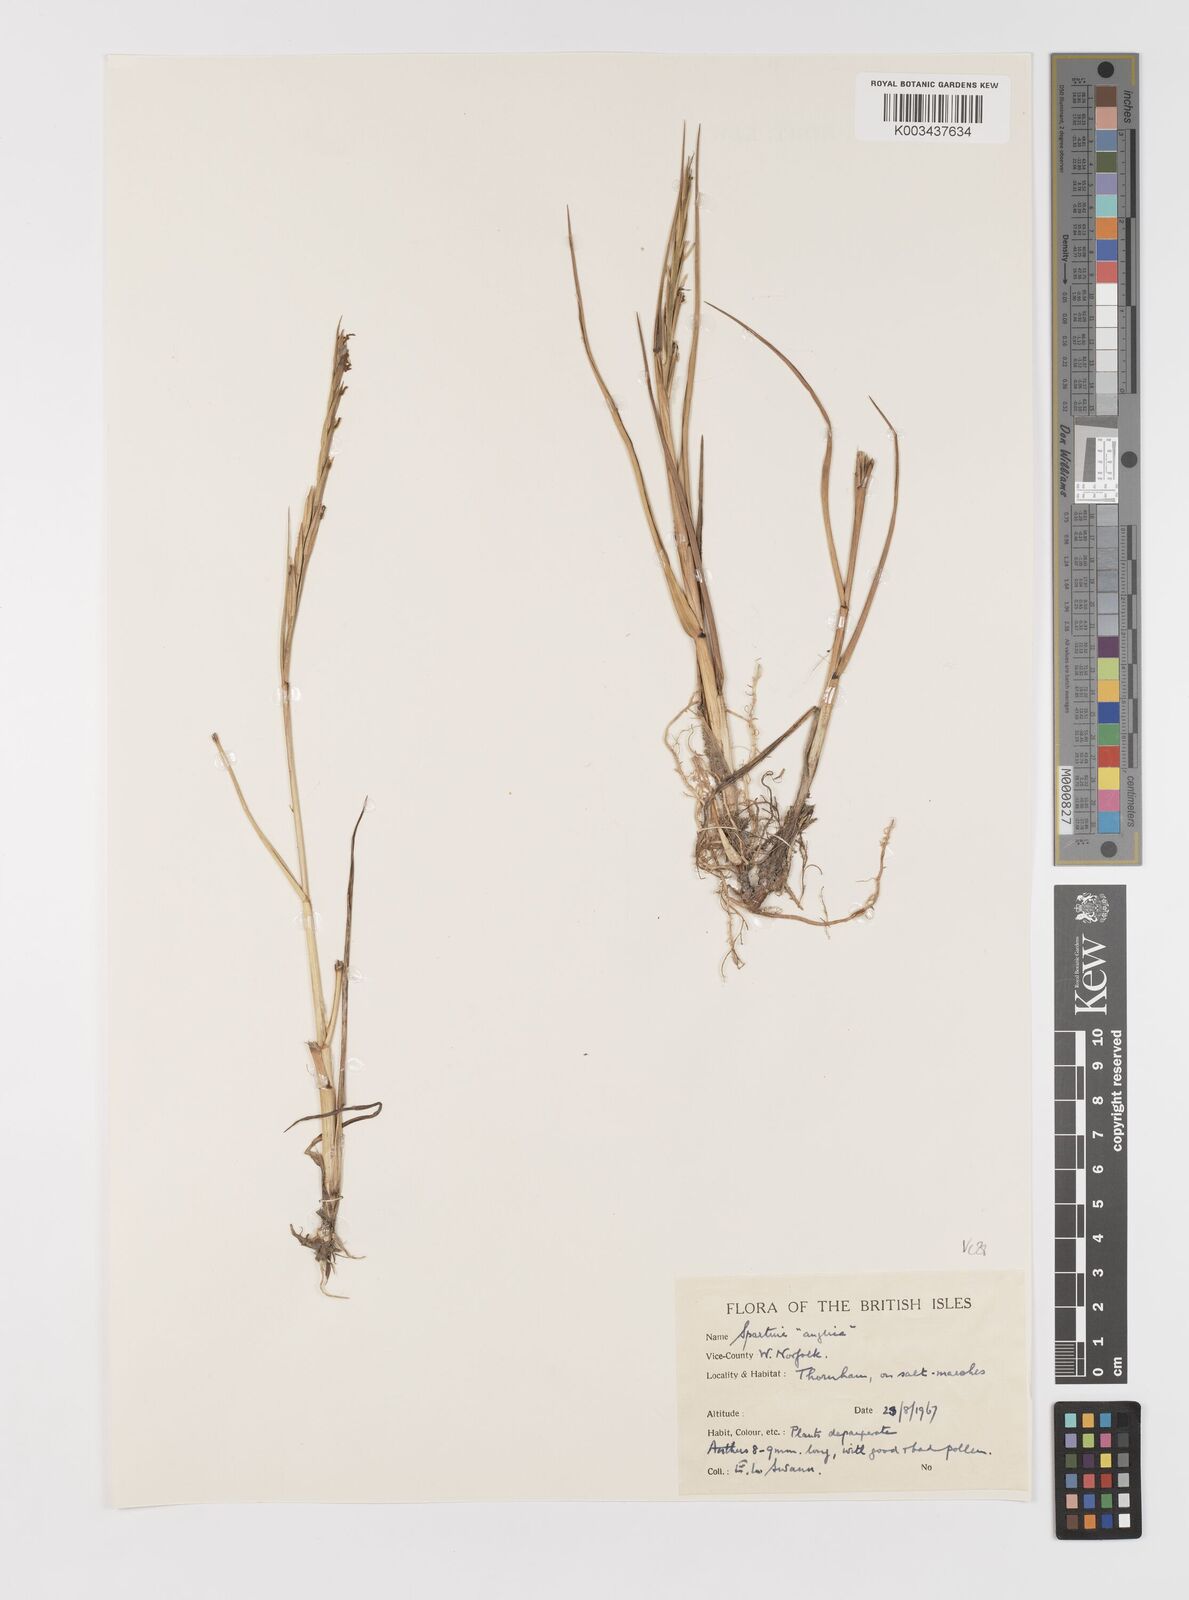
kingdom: Plantae
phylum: Tracheophyta
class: Liliopsida
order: Poales
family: Poaceae
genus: Sporobolus
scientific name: Sporobolus anglicus
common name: English cordgrass
